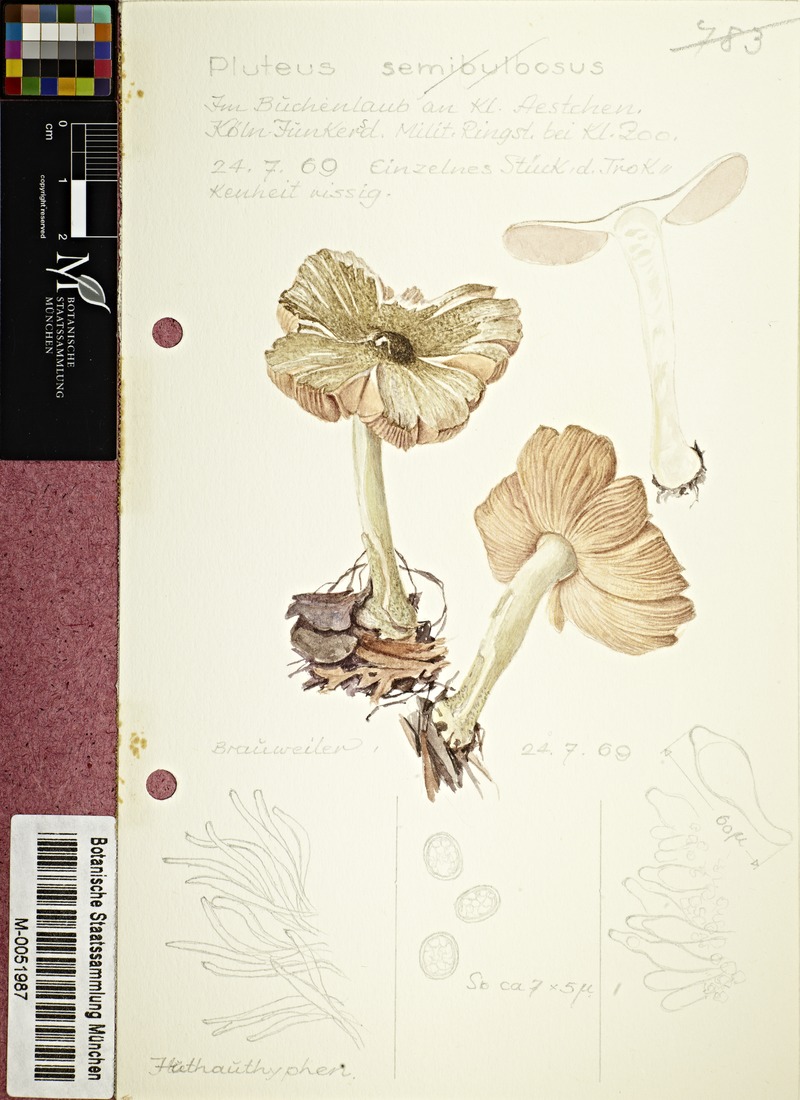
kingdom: Fungi
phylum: Basidiomycota
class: Agaricomycetes
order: Agaricales
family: Pluteaceae
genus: Pluteus
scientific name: Pluteus semibulbosus
